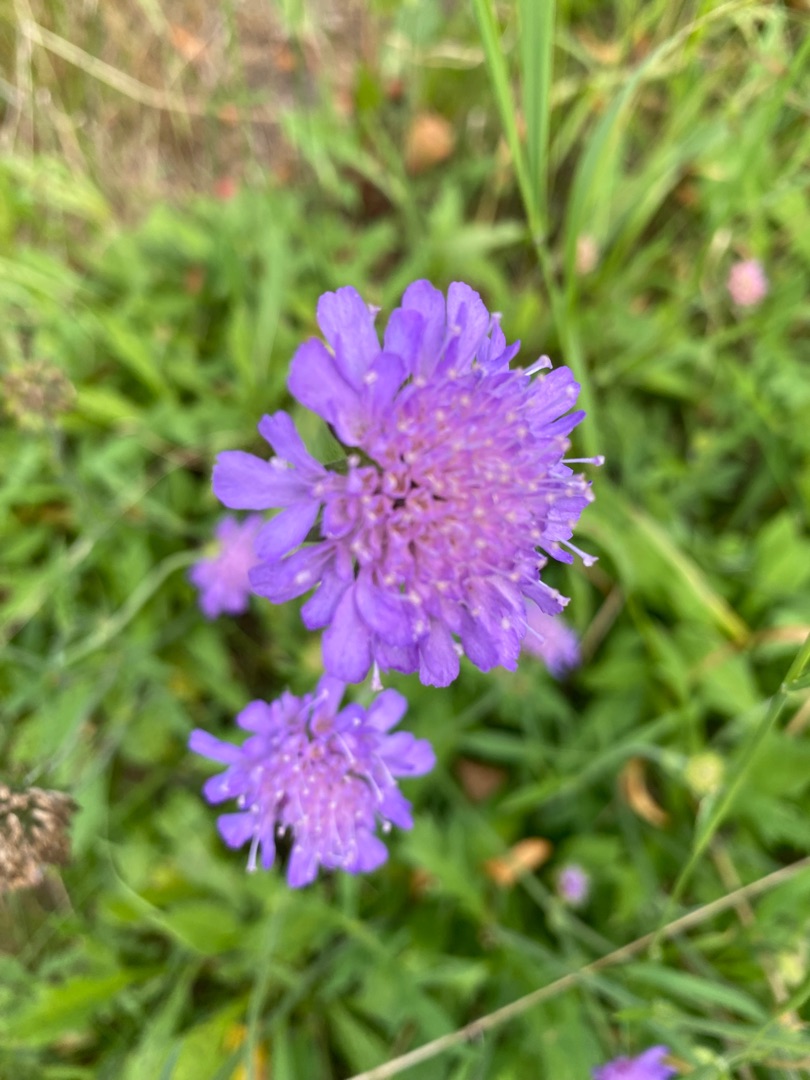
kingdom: Plantae
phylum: Tracheophyta
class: Magnoliopsida
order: Dipsacales
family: Caprifoliaceae
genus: Knautia
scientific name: Knautia arvensis
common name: Blåhat
